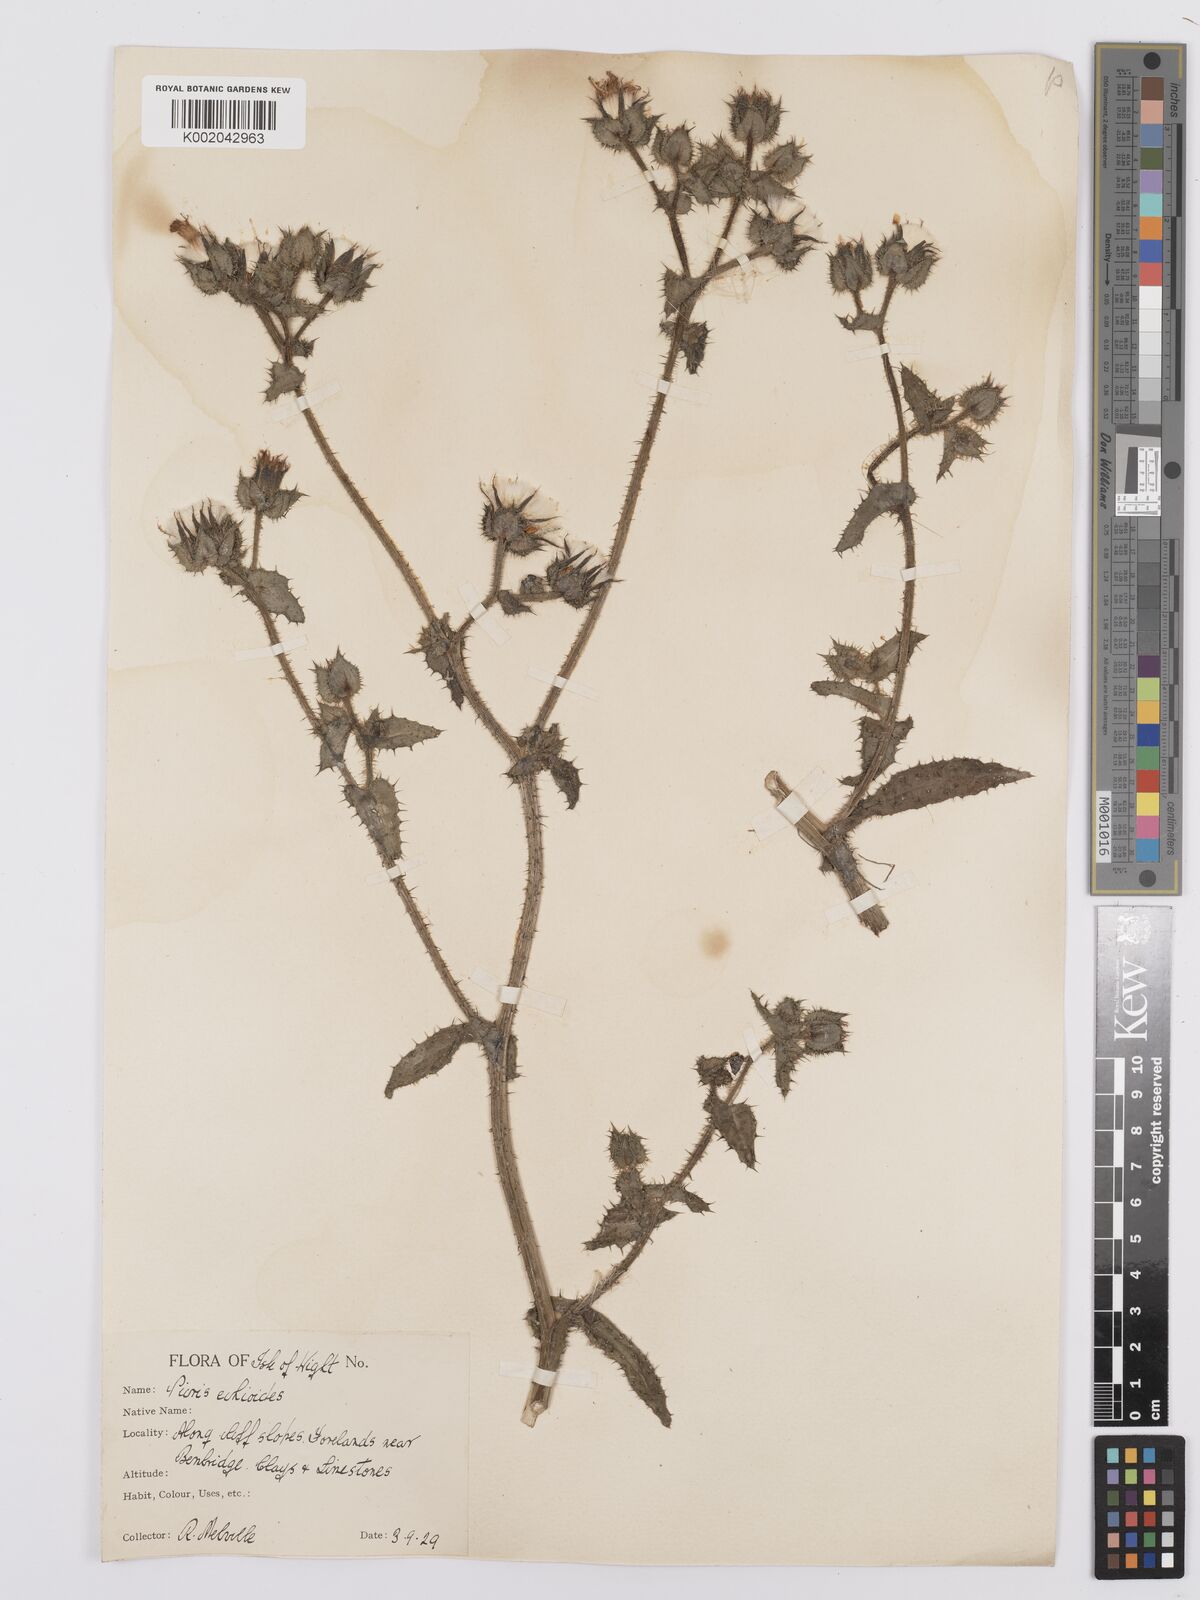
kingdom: Plantae
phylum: Tracheophyta
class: Magnoliopsida
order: Asterales
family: Asteraceae
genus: Helminthotheca
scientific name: Helminthotheca echioides
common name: Ox-tongue
